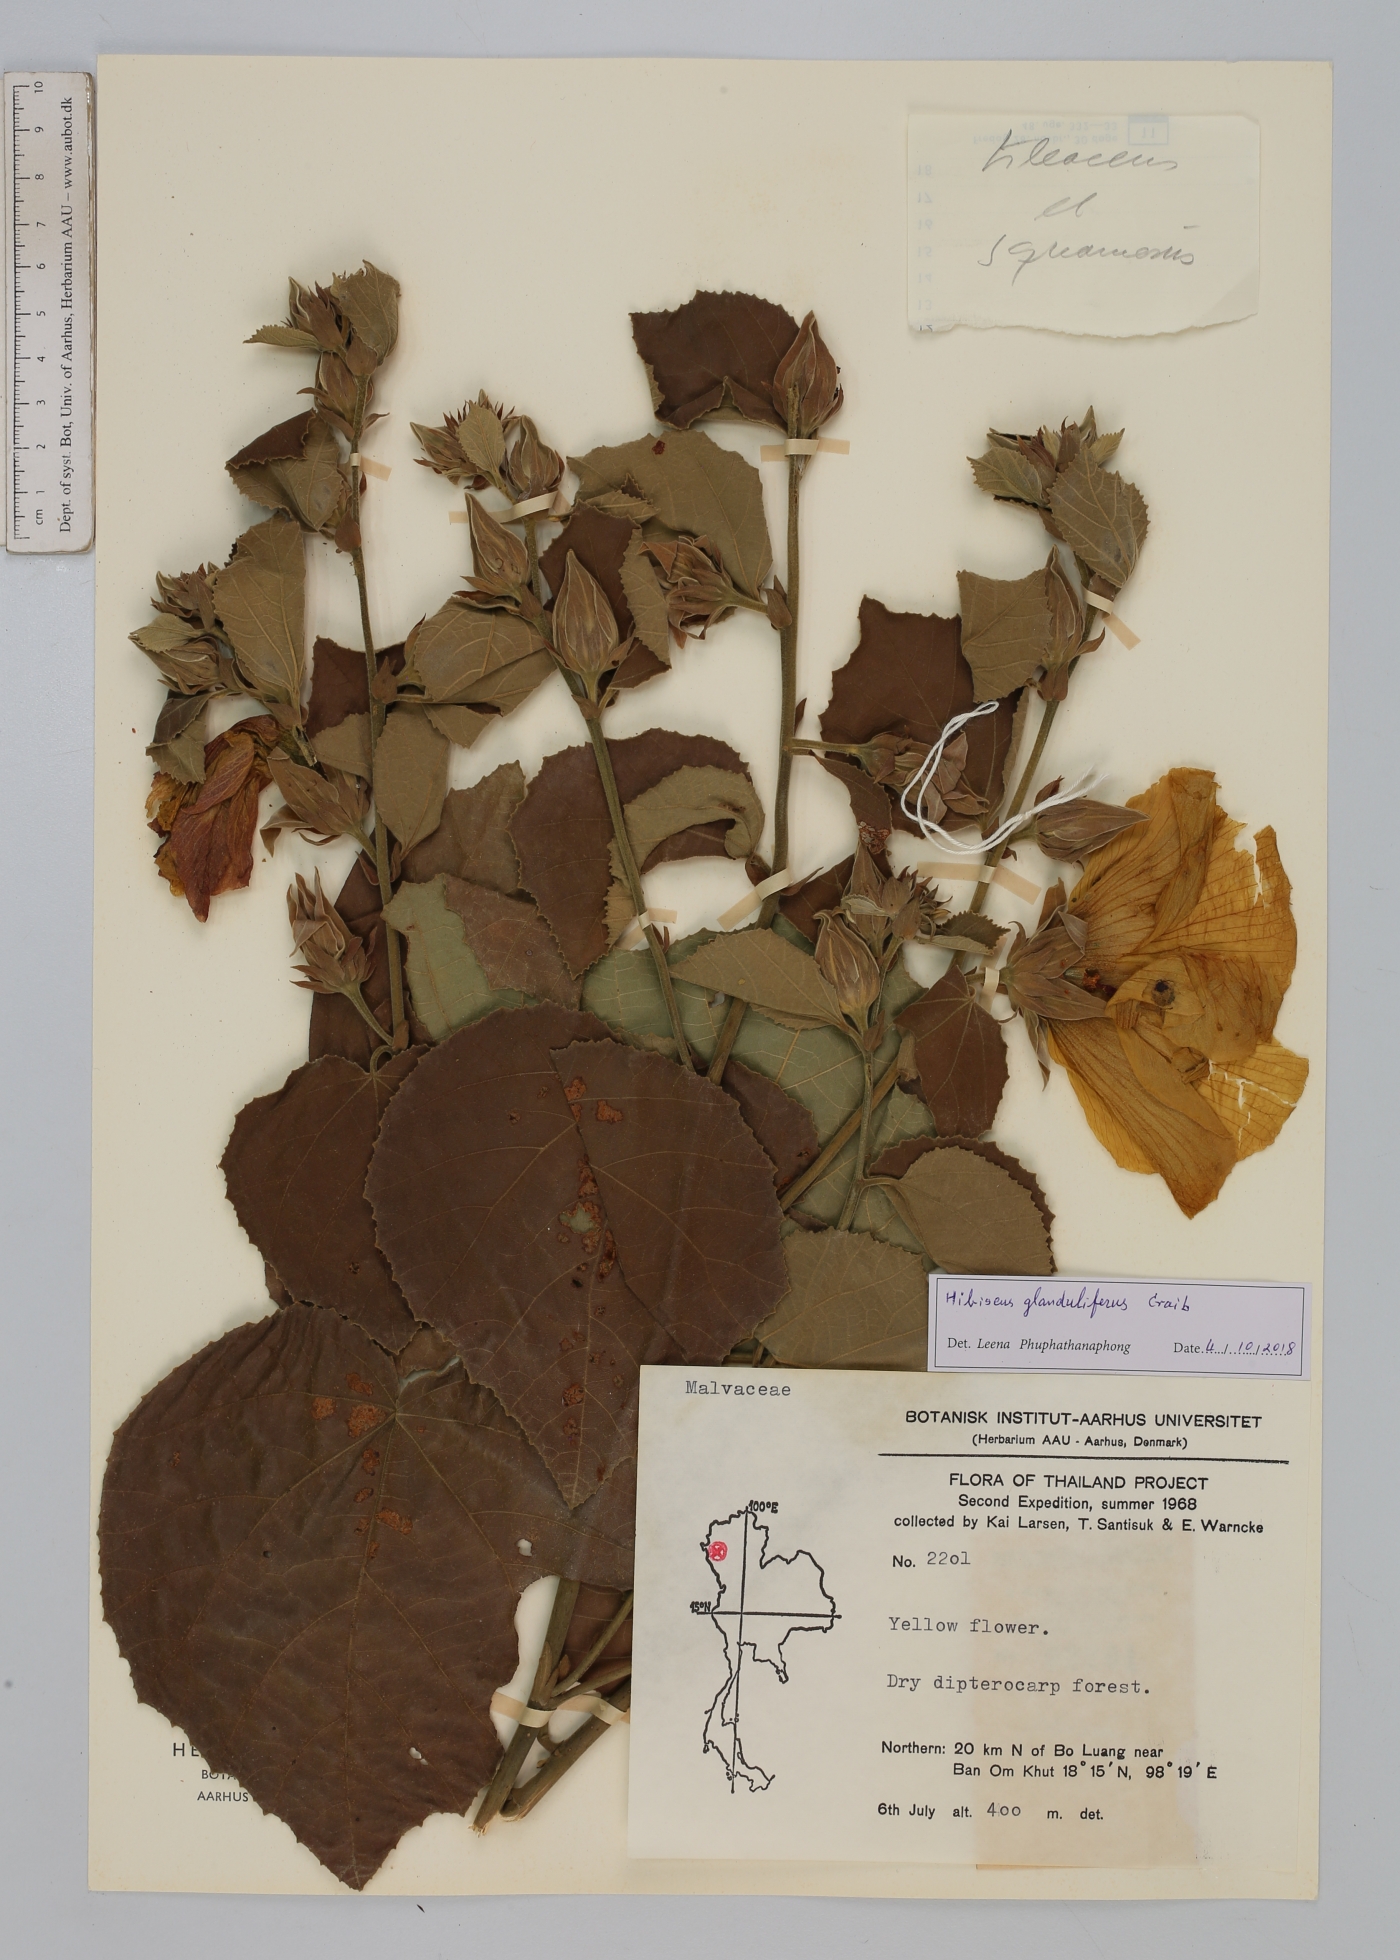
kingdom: Plantae
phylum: Tracheophyta
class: Magnoliopsida
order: Malvales
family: Malvaceae
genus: Hibiscus
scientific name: Hibiscus glanduliferus
